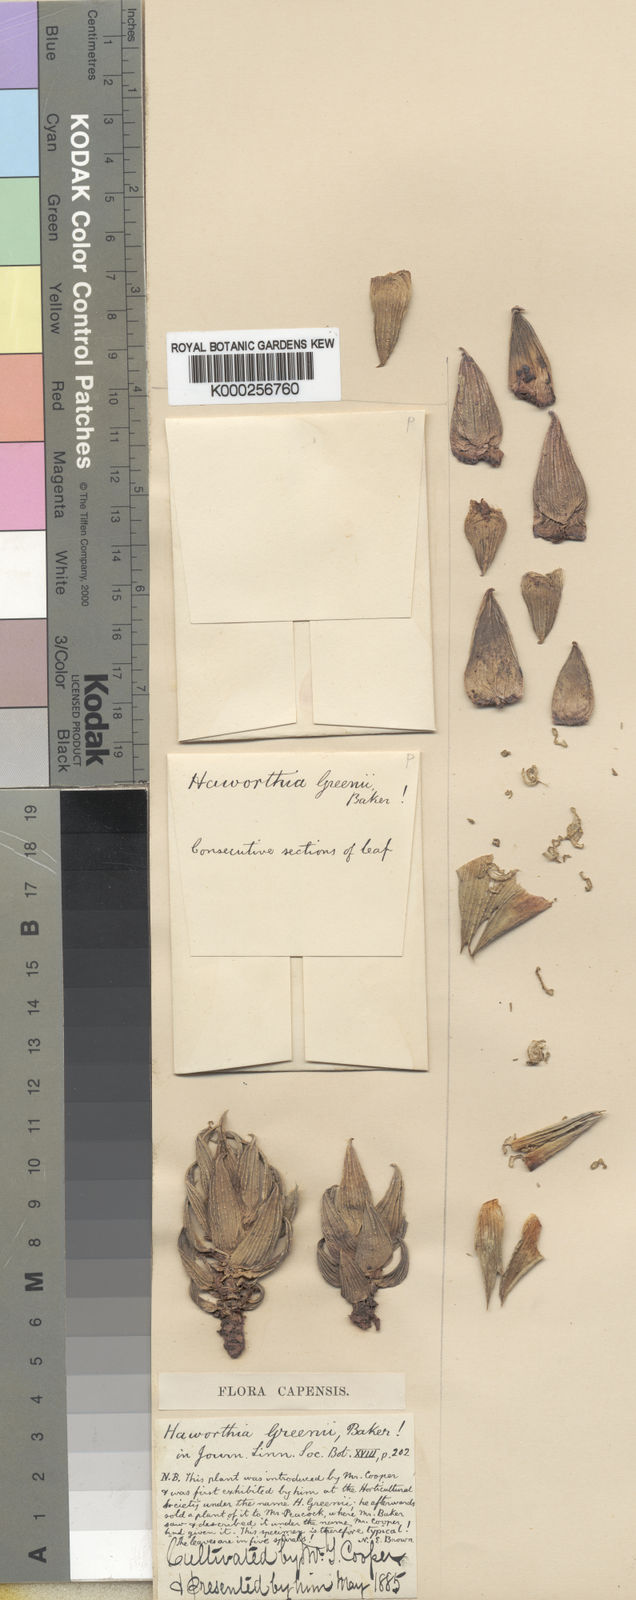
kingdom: Plantae
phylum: Tracheophyta
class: Liliopsida
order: Asparagales
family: Asphodelaceae
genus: Haworthiopsis
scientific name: Haworthiopsis coarctata
